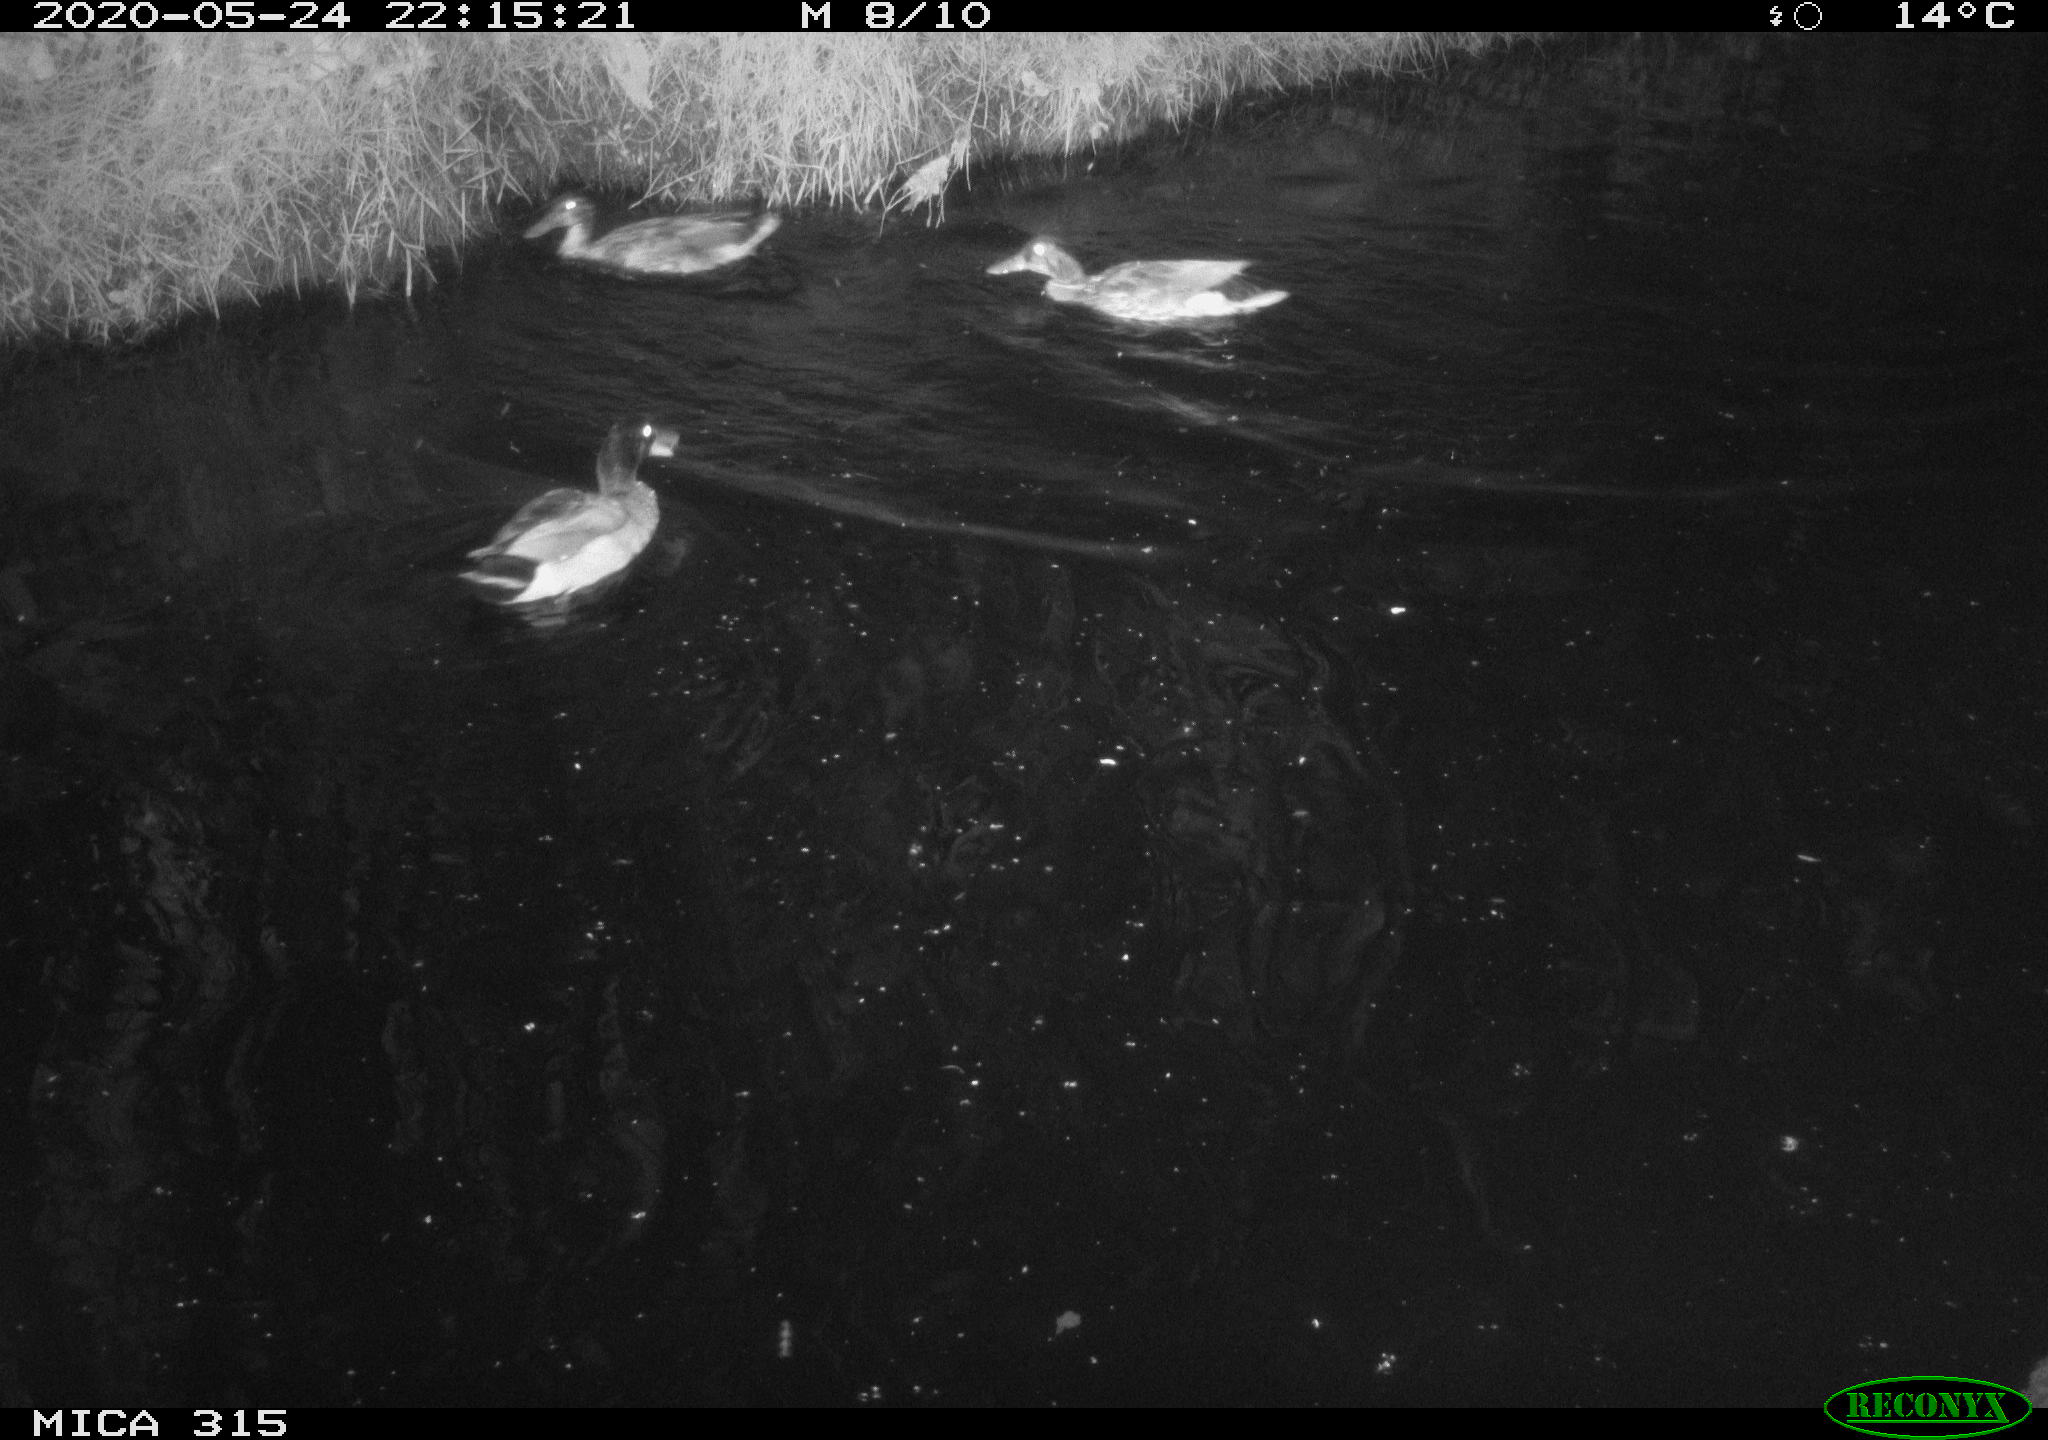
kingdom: Animalia
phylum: Chordata
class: Aves
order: Anseriformes
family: Anatidae
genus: Anas
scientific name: Anas platyrhynchos
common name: Mallard
